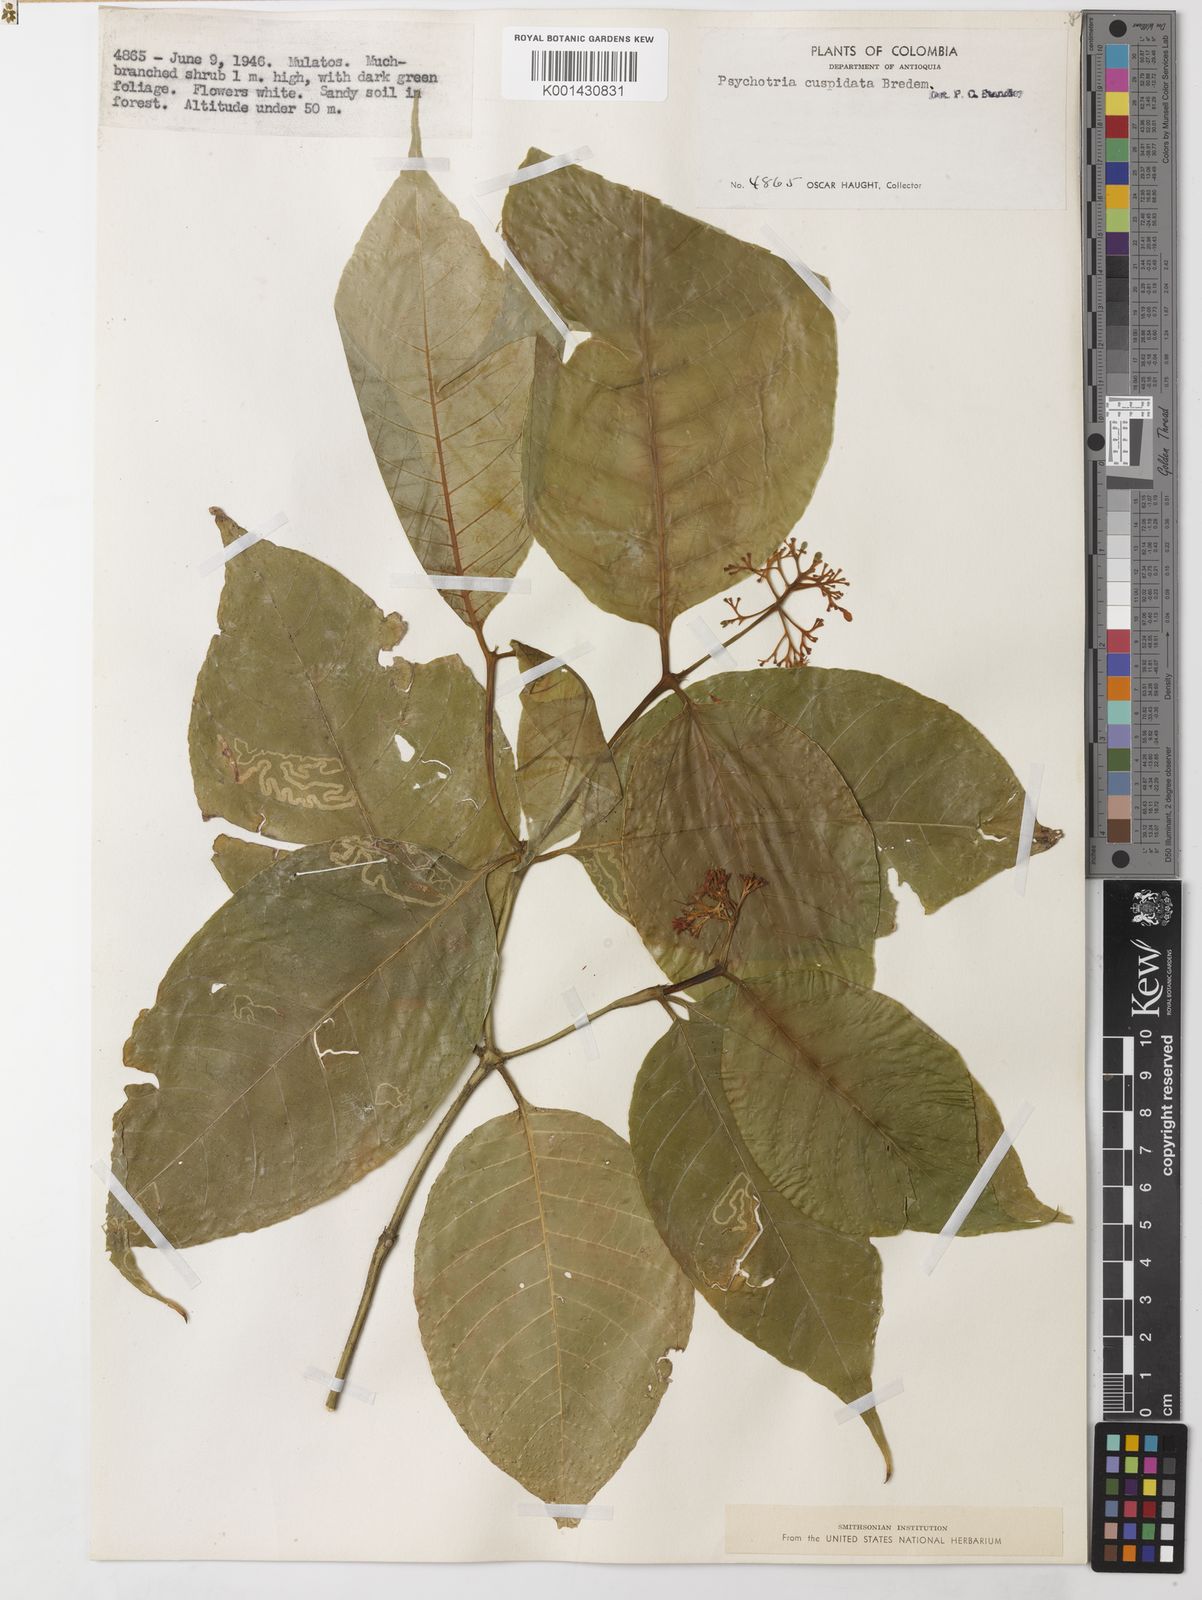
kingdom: Plantae
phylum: Tracheophyta
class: Magnoliopsida
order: Gentianales
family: Rubiaceae
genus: Palicourea
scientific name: Palicourea cuspidata
